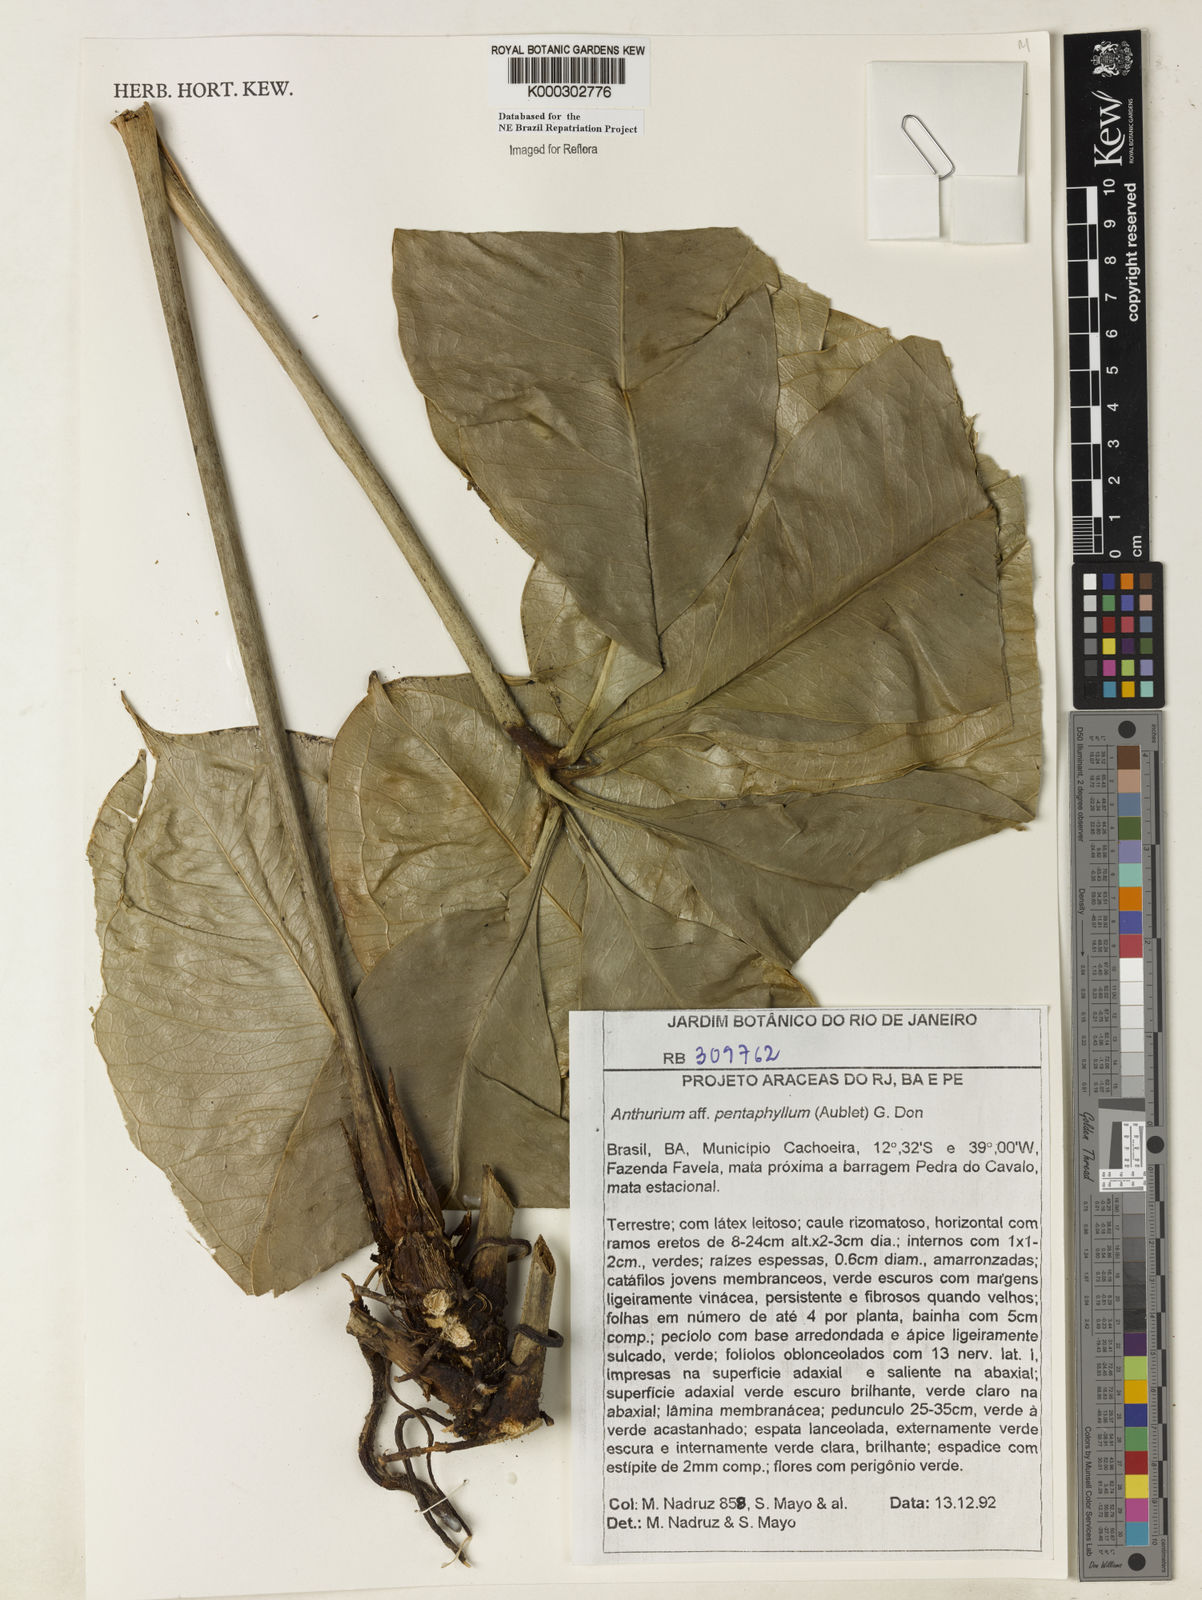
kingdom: Plantae
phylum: Tracheophyta
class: Liliopsida
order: Alismatales
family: Araceae
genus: Anthurium
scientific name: Anthurium pentaphyllum
